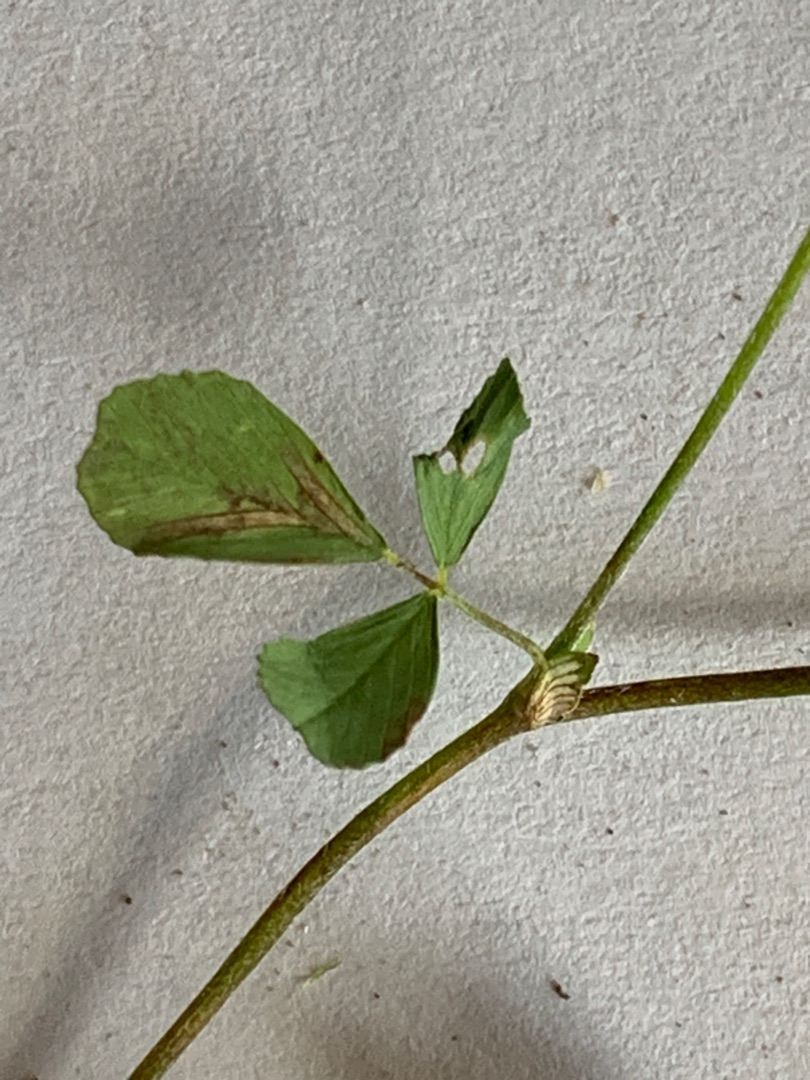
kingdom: Plantae
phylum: Tracheophyta
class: Magnoliopsida
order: Fabales
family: Fabaceae
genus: Trifolium
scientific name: Trifolium campestre
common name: Gul kløver
